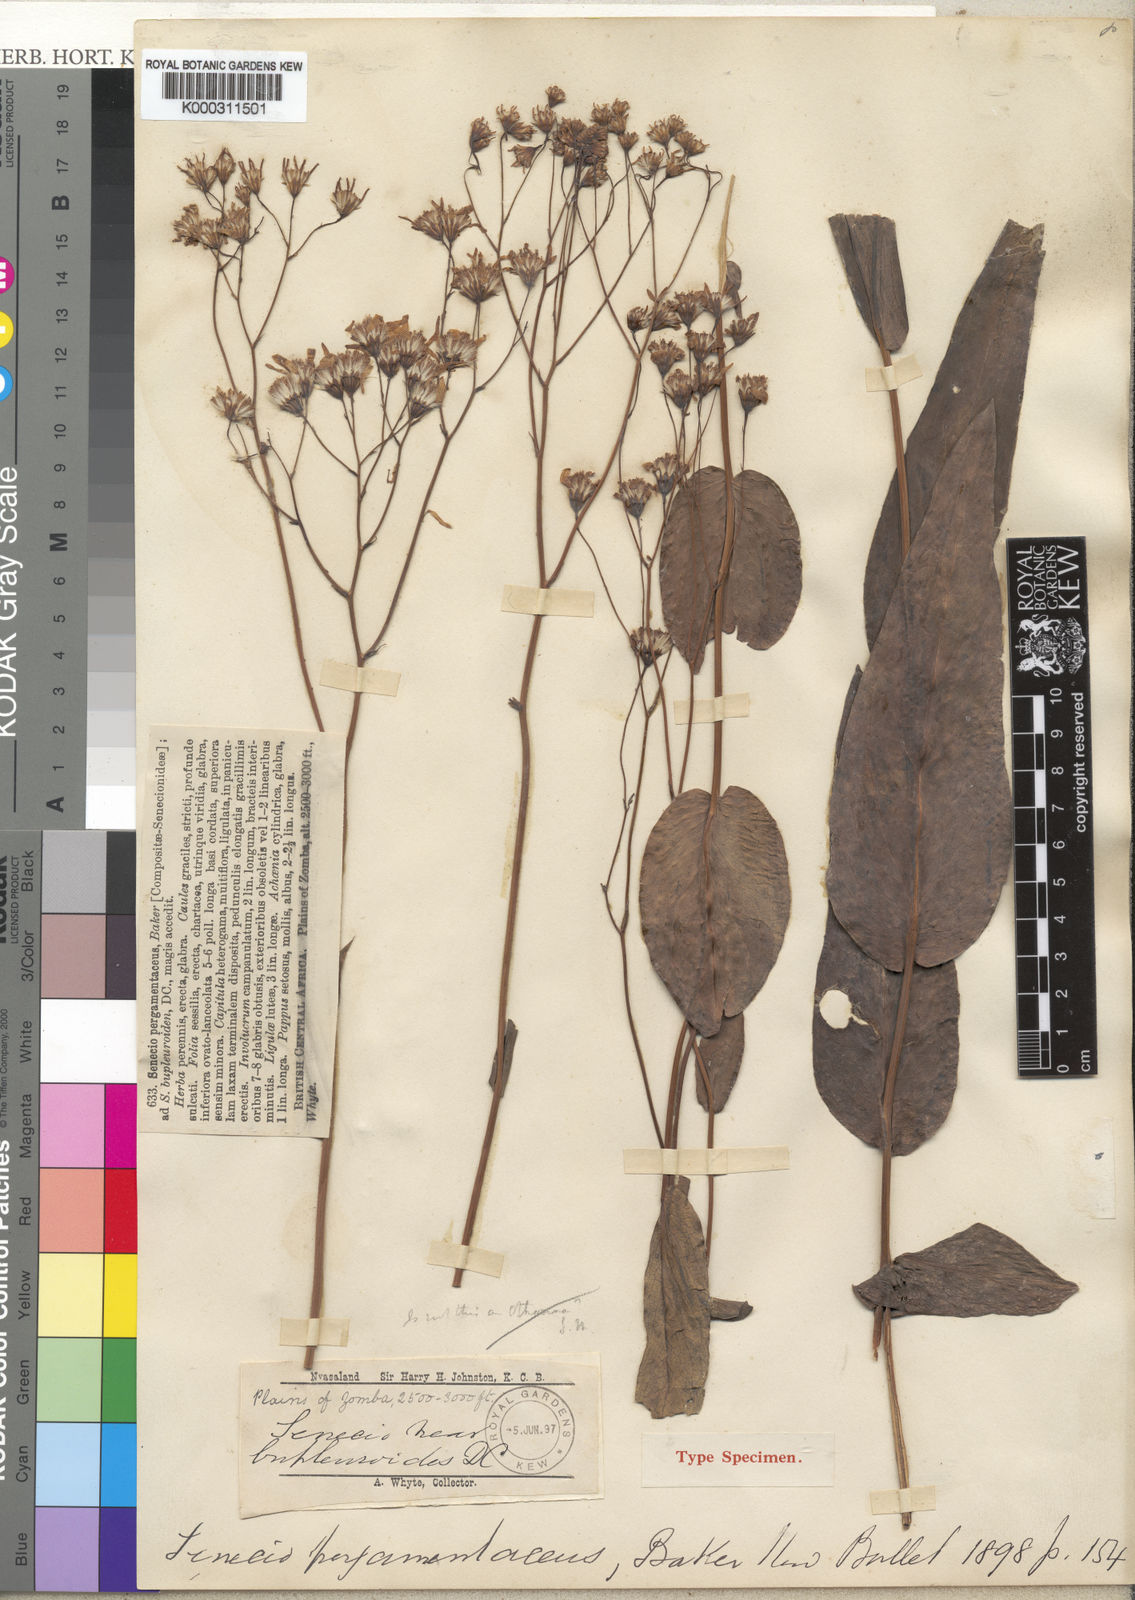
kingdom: Plantae
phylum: Tracheophyta
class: Magnoliopsida
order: Asterales
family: Asteraceae
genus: Senecio
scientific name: Senecio pergamentaceus
